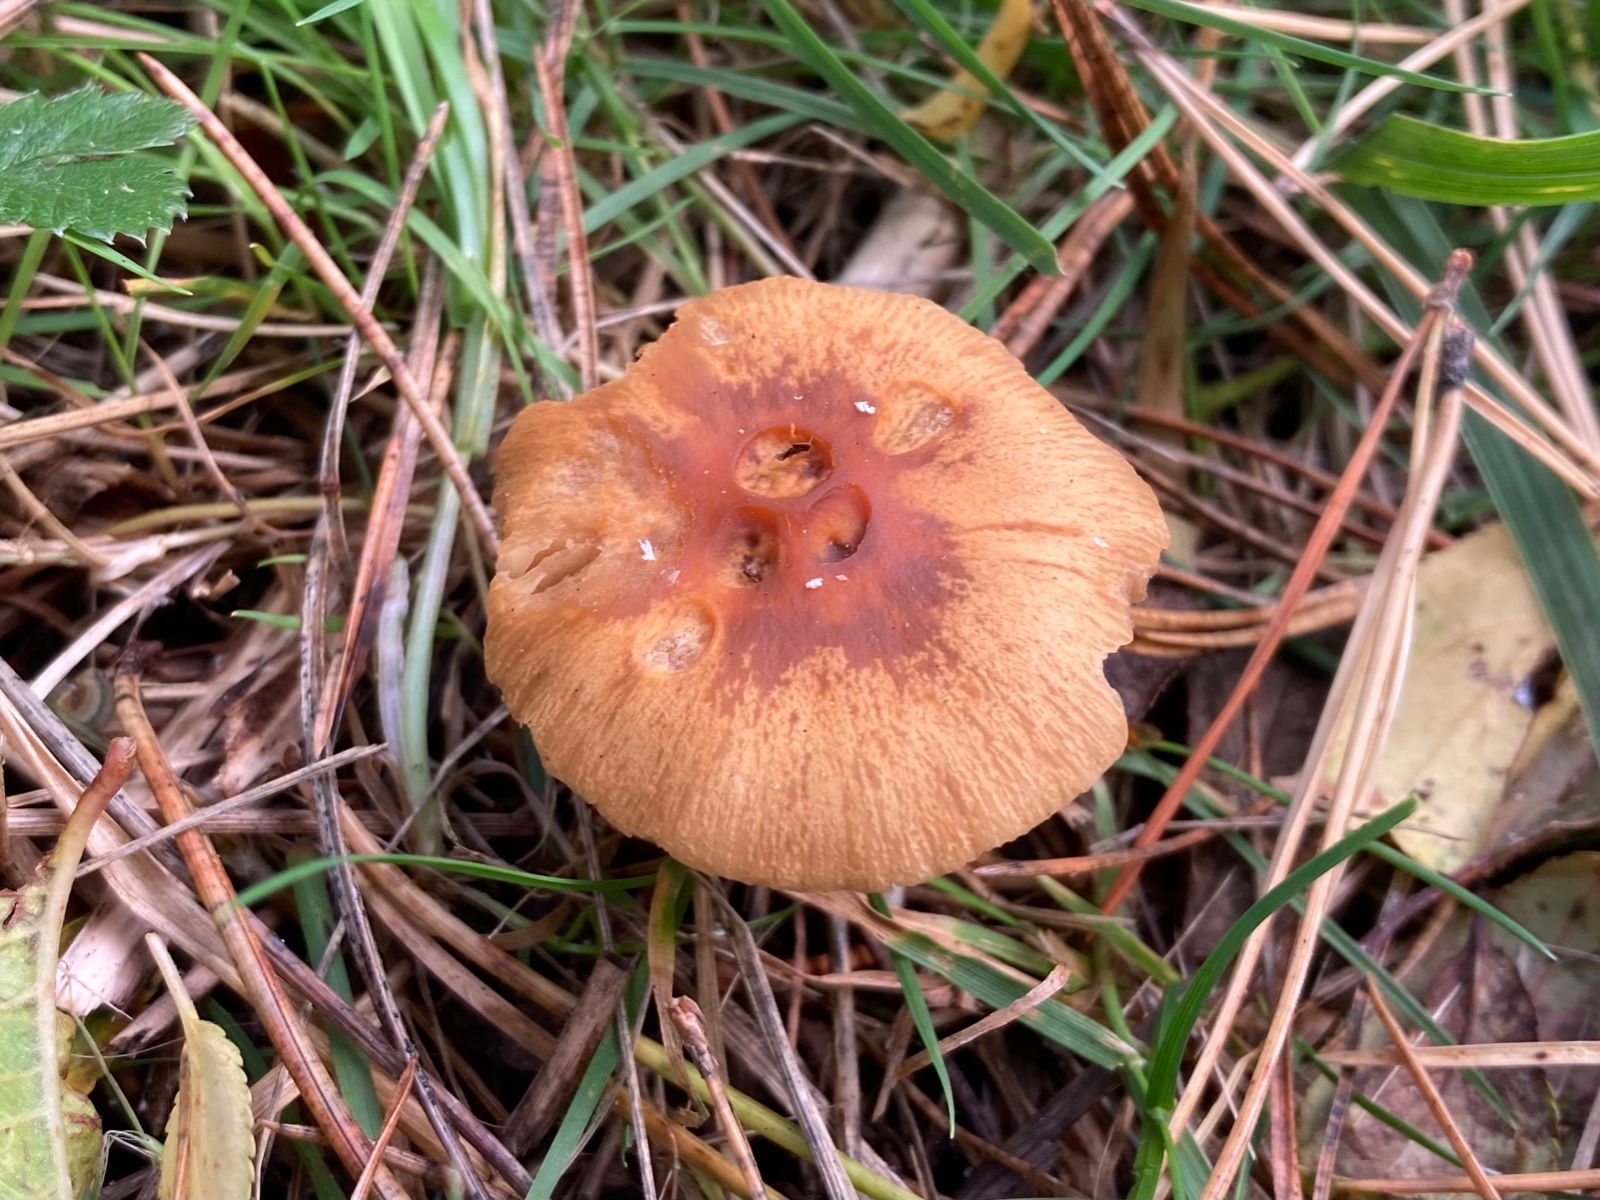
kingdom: Fungi
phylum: Basidiomycota
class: Agaricomycetes
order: Agaricales
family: Cortinariaceae
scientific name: Cortinariaceae
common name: slørhatfamilien
